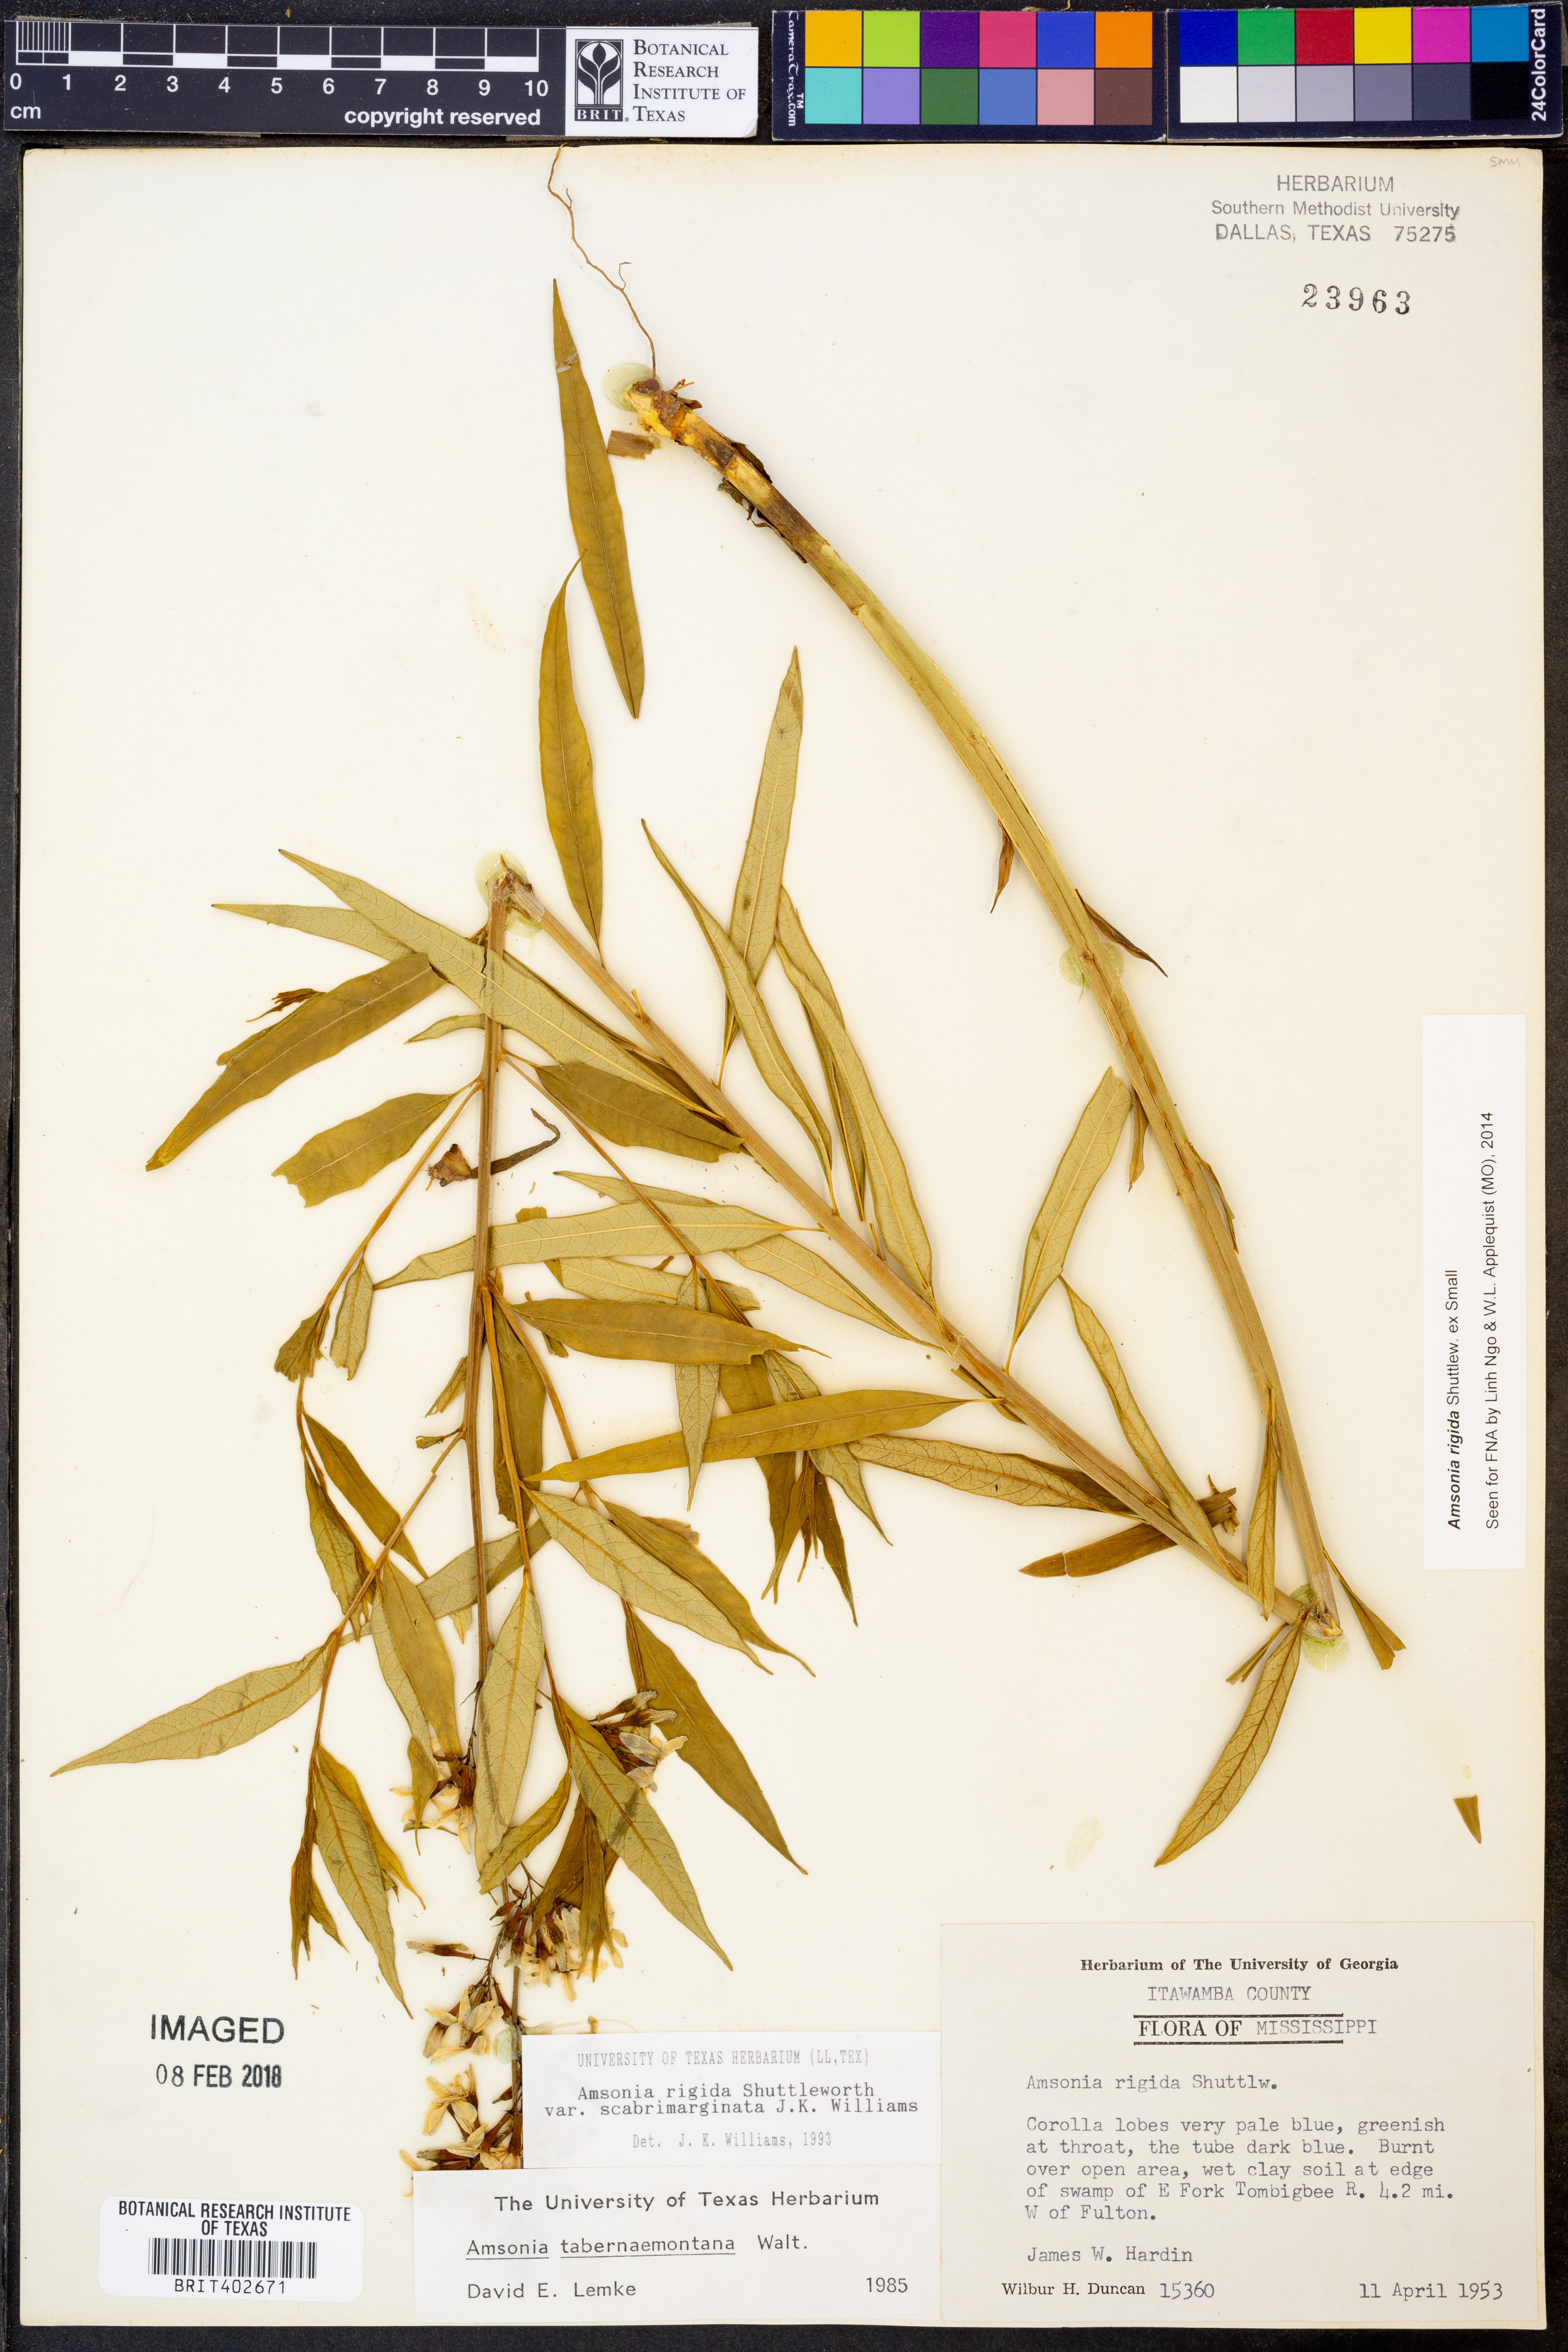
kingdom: Plantae
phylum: Tracheophyta
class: Magnoliopsida
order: Gentianales
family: Apocynaceae
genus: Amsonia
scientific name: Amsonia rigida
